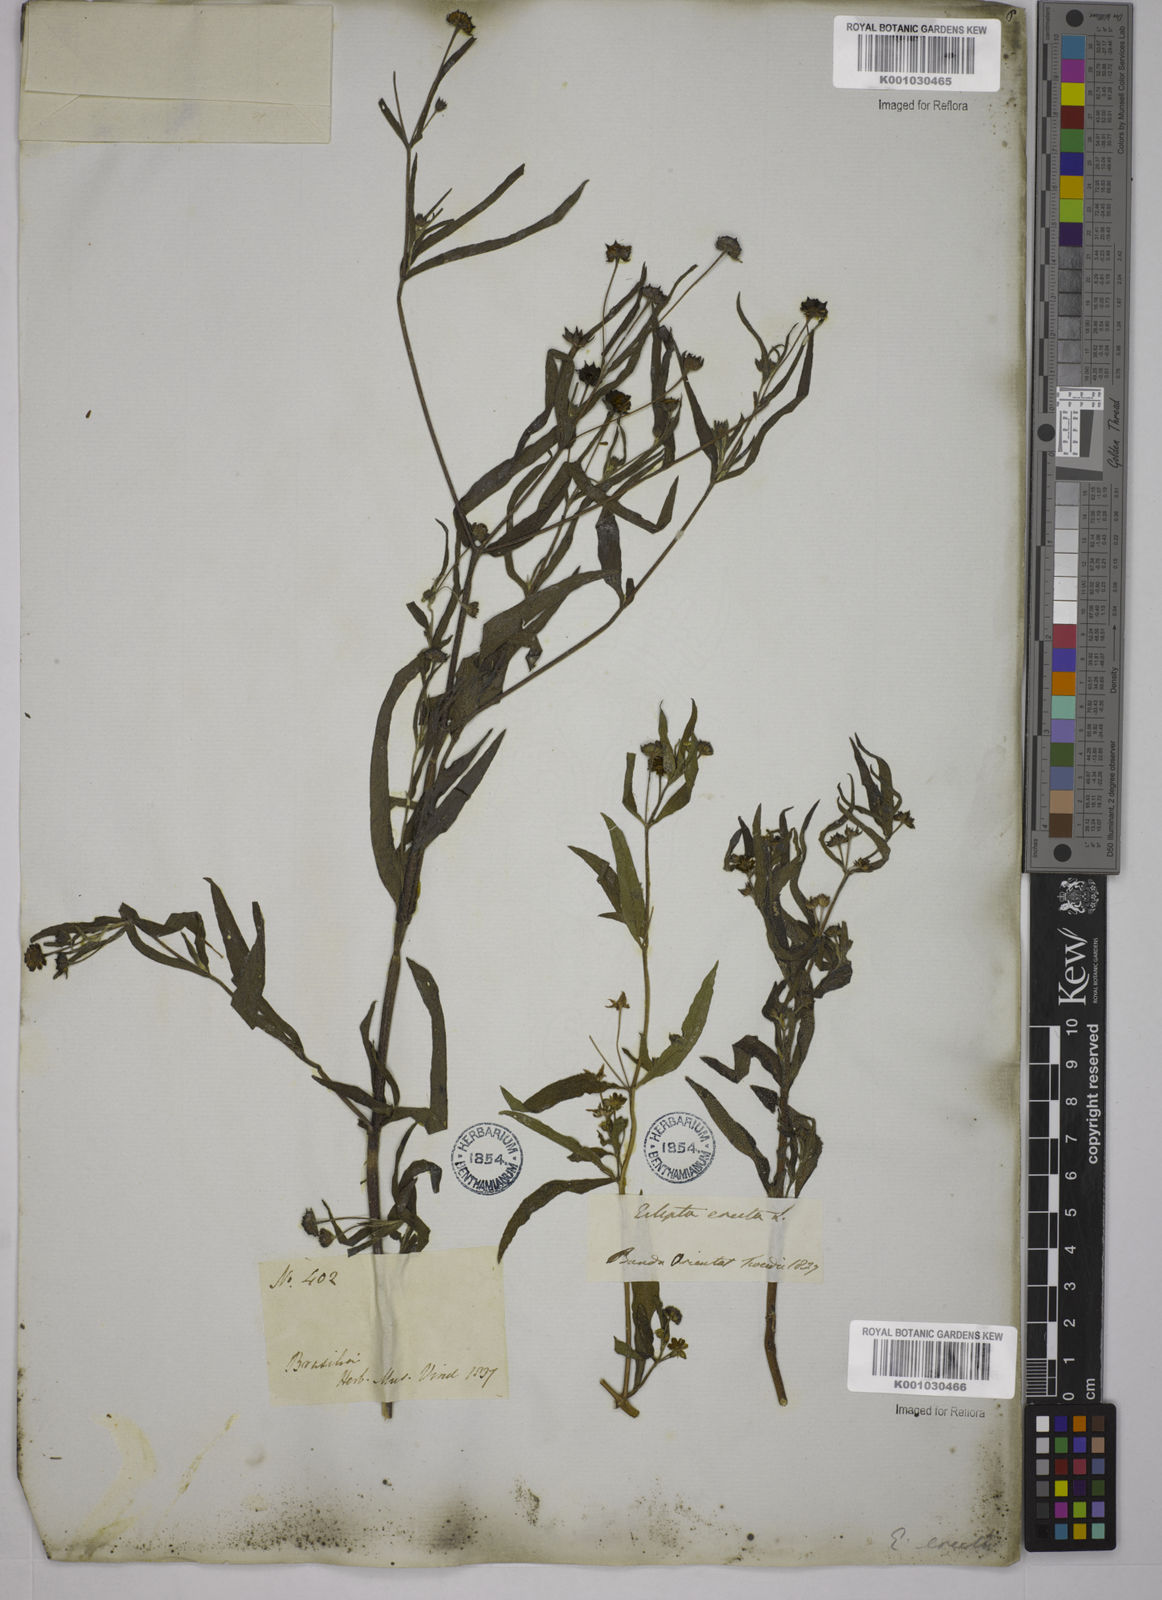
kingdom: Plantae
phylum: Tracheophyta
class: Magnoliopsida
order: Asterales
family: Asteraceae
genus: Eclipta
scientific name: Eclipta prostrata
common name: False daisy
